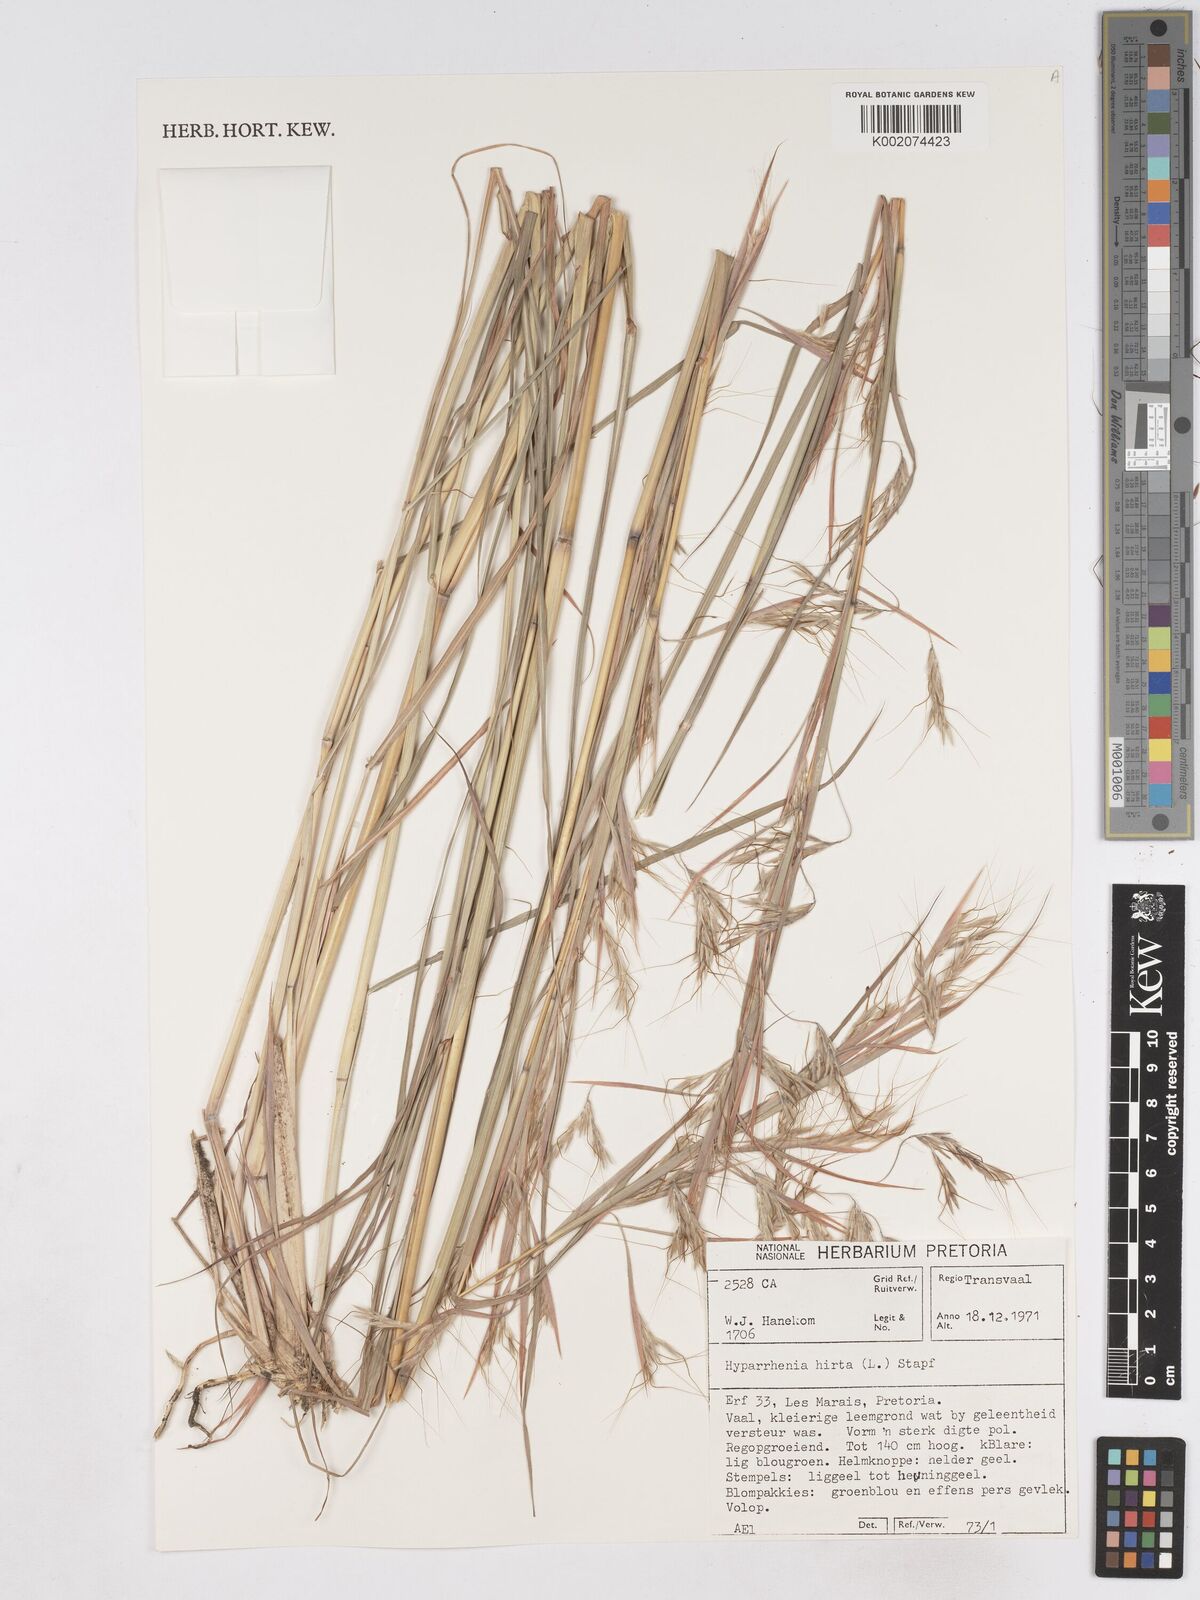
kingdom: Plantae
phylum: Tracheophyta
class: Liliopsida
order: Poales
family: Poaceae
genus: Hyparrhenia
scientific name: Hyparrhenia hirta
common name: Thatching grass
